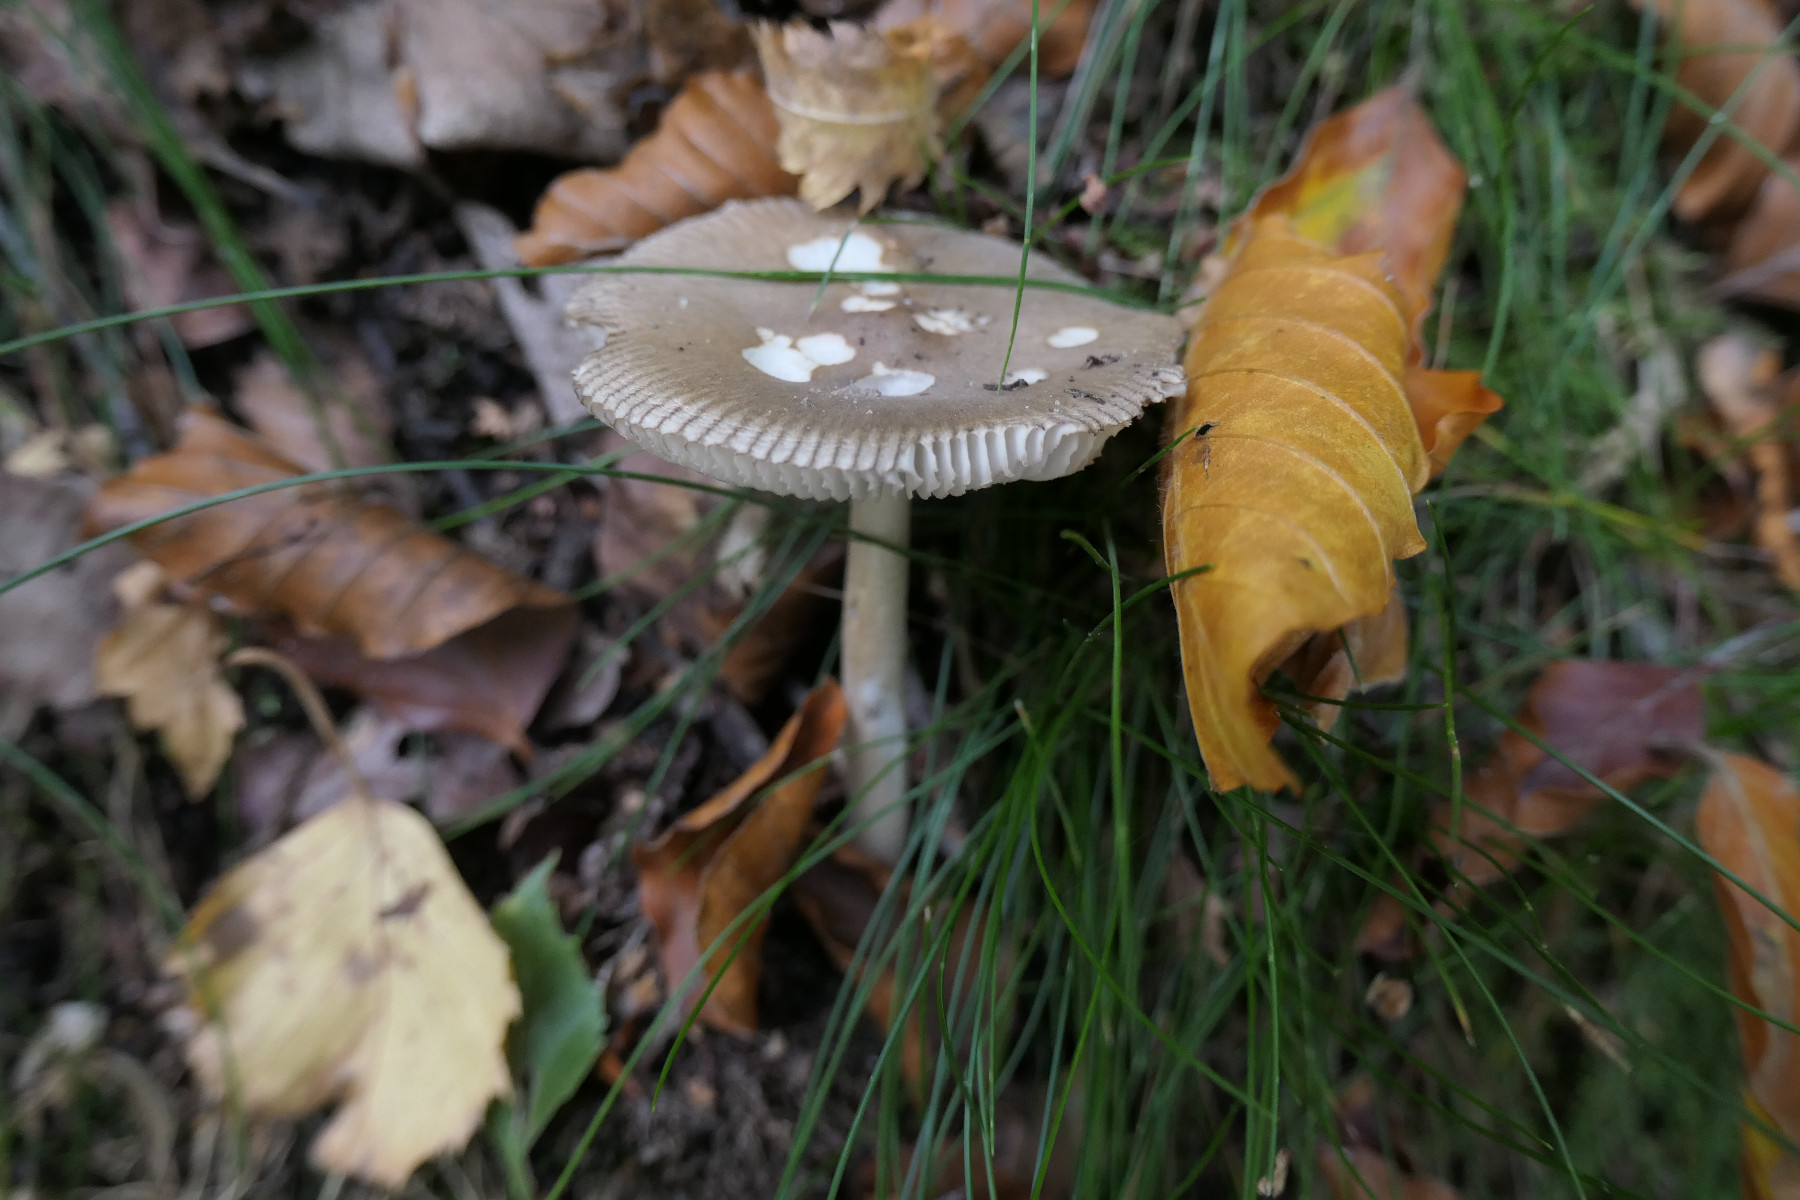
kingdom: Fungi
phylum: Basidiomycota
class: Agaricomycetes
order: Agaricales
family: Amanitaceae
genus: Amanita
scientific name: Amanita vaginata
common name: grå kam-fluesvamp
